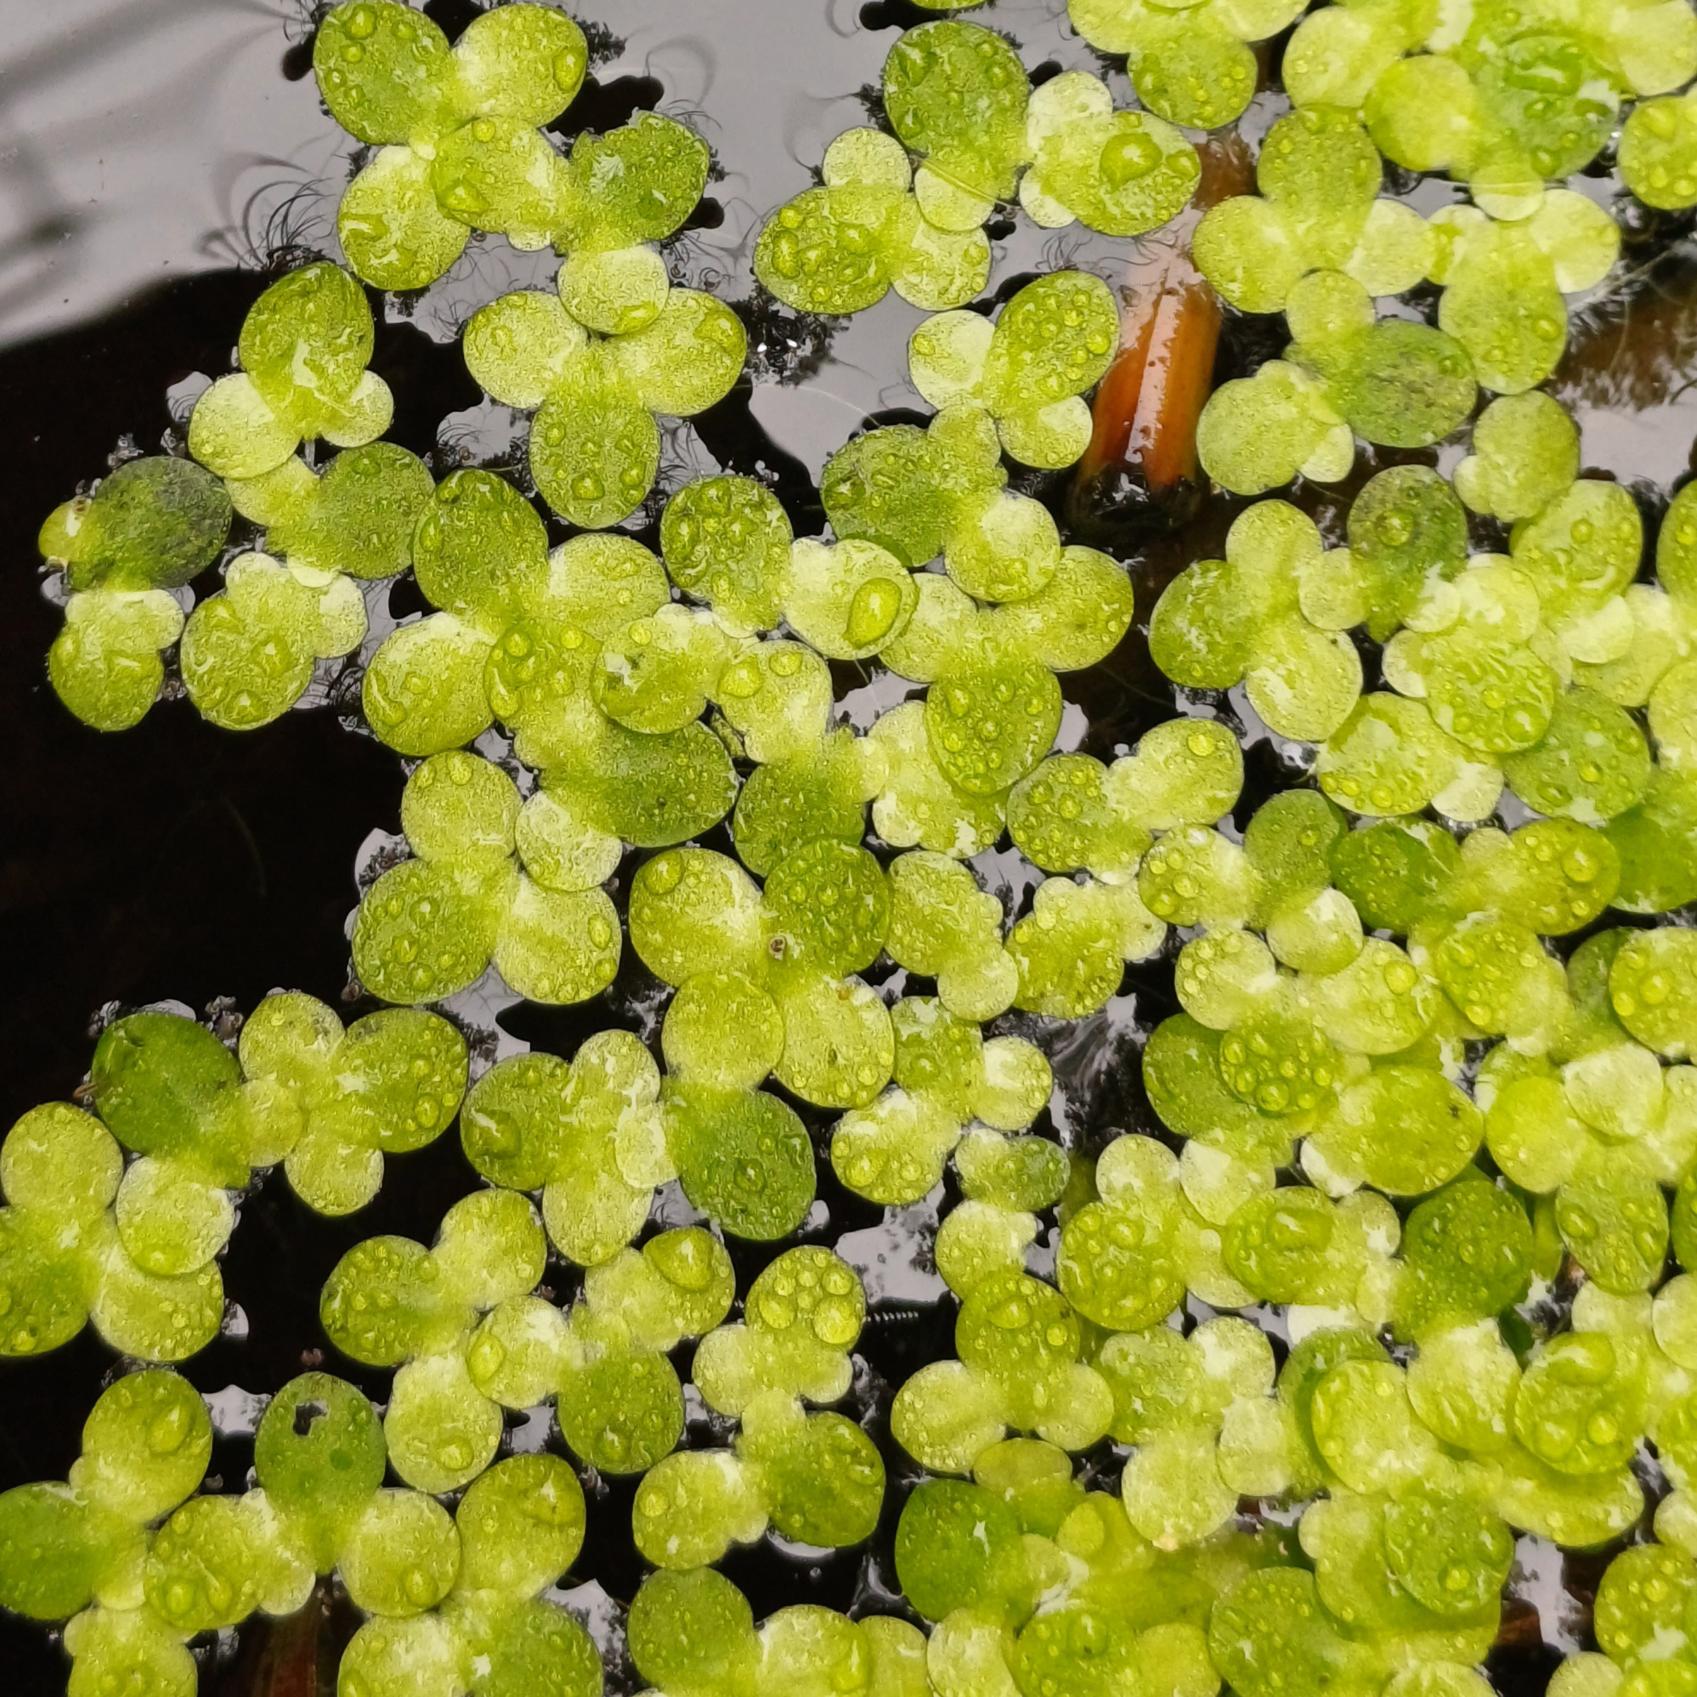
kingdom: Plantae
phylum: Tracheophyta
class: Liliopsida
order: Alismatales
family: Araceae
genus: Lemna
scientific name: Lemna minor
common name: Liden andemad
